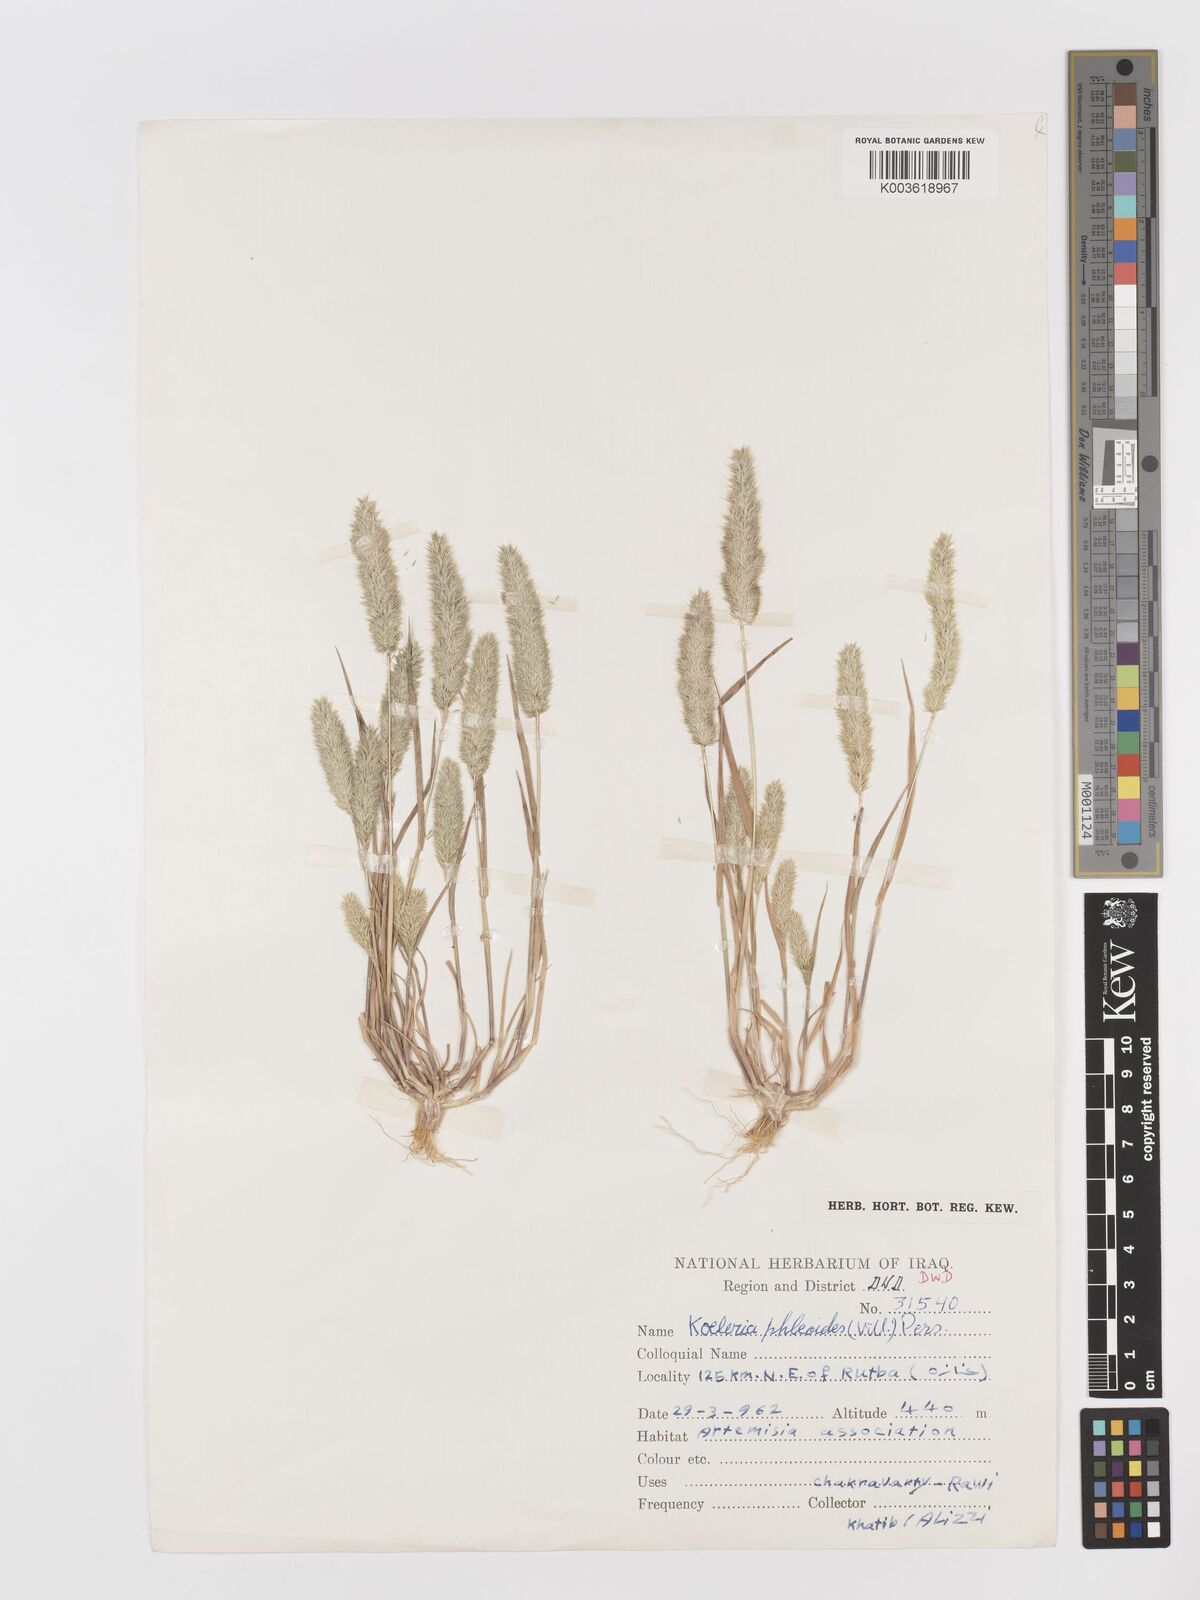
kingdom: Plantae
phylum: Tracheophyta
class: Liliopsida
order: Poales
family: Poaceae
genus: Rostraria
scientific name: Rostraria cristata
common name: Mediterranean hair-grass
